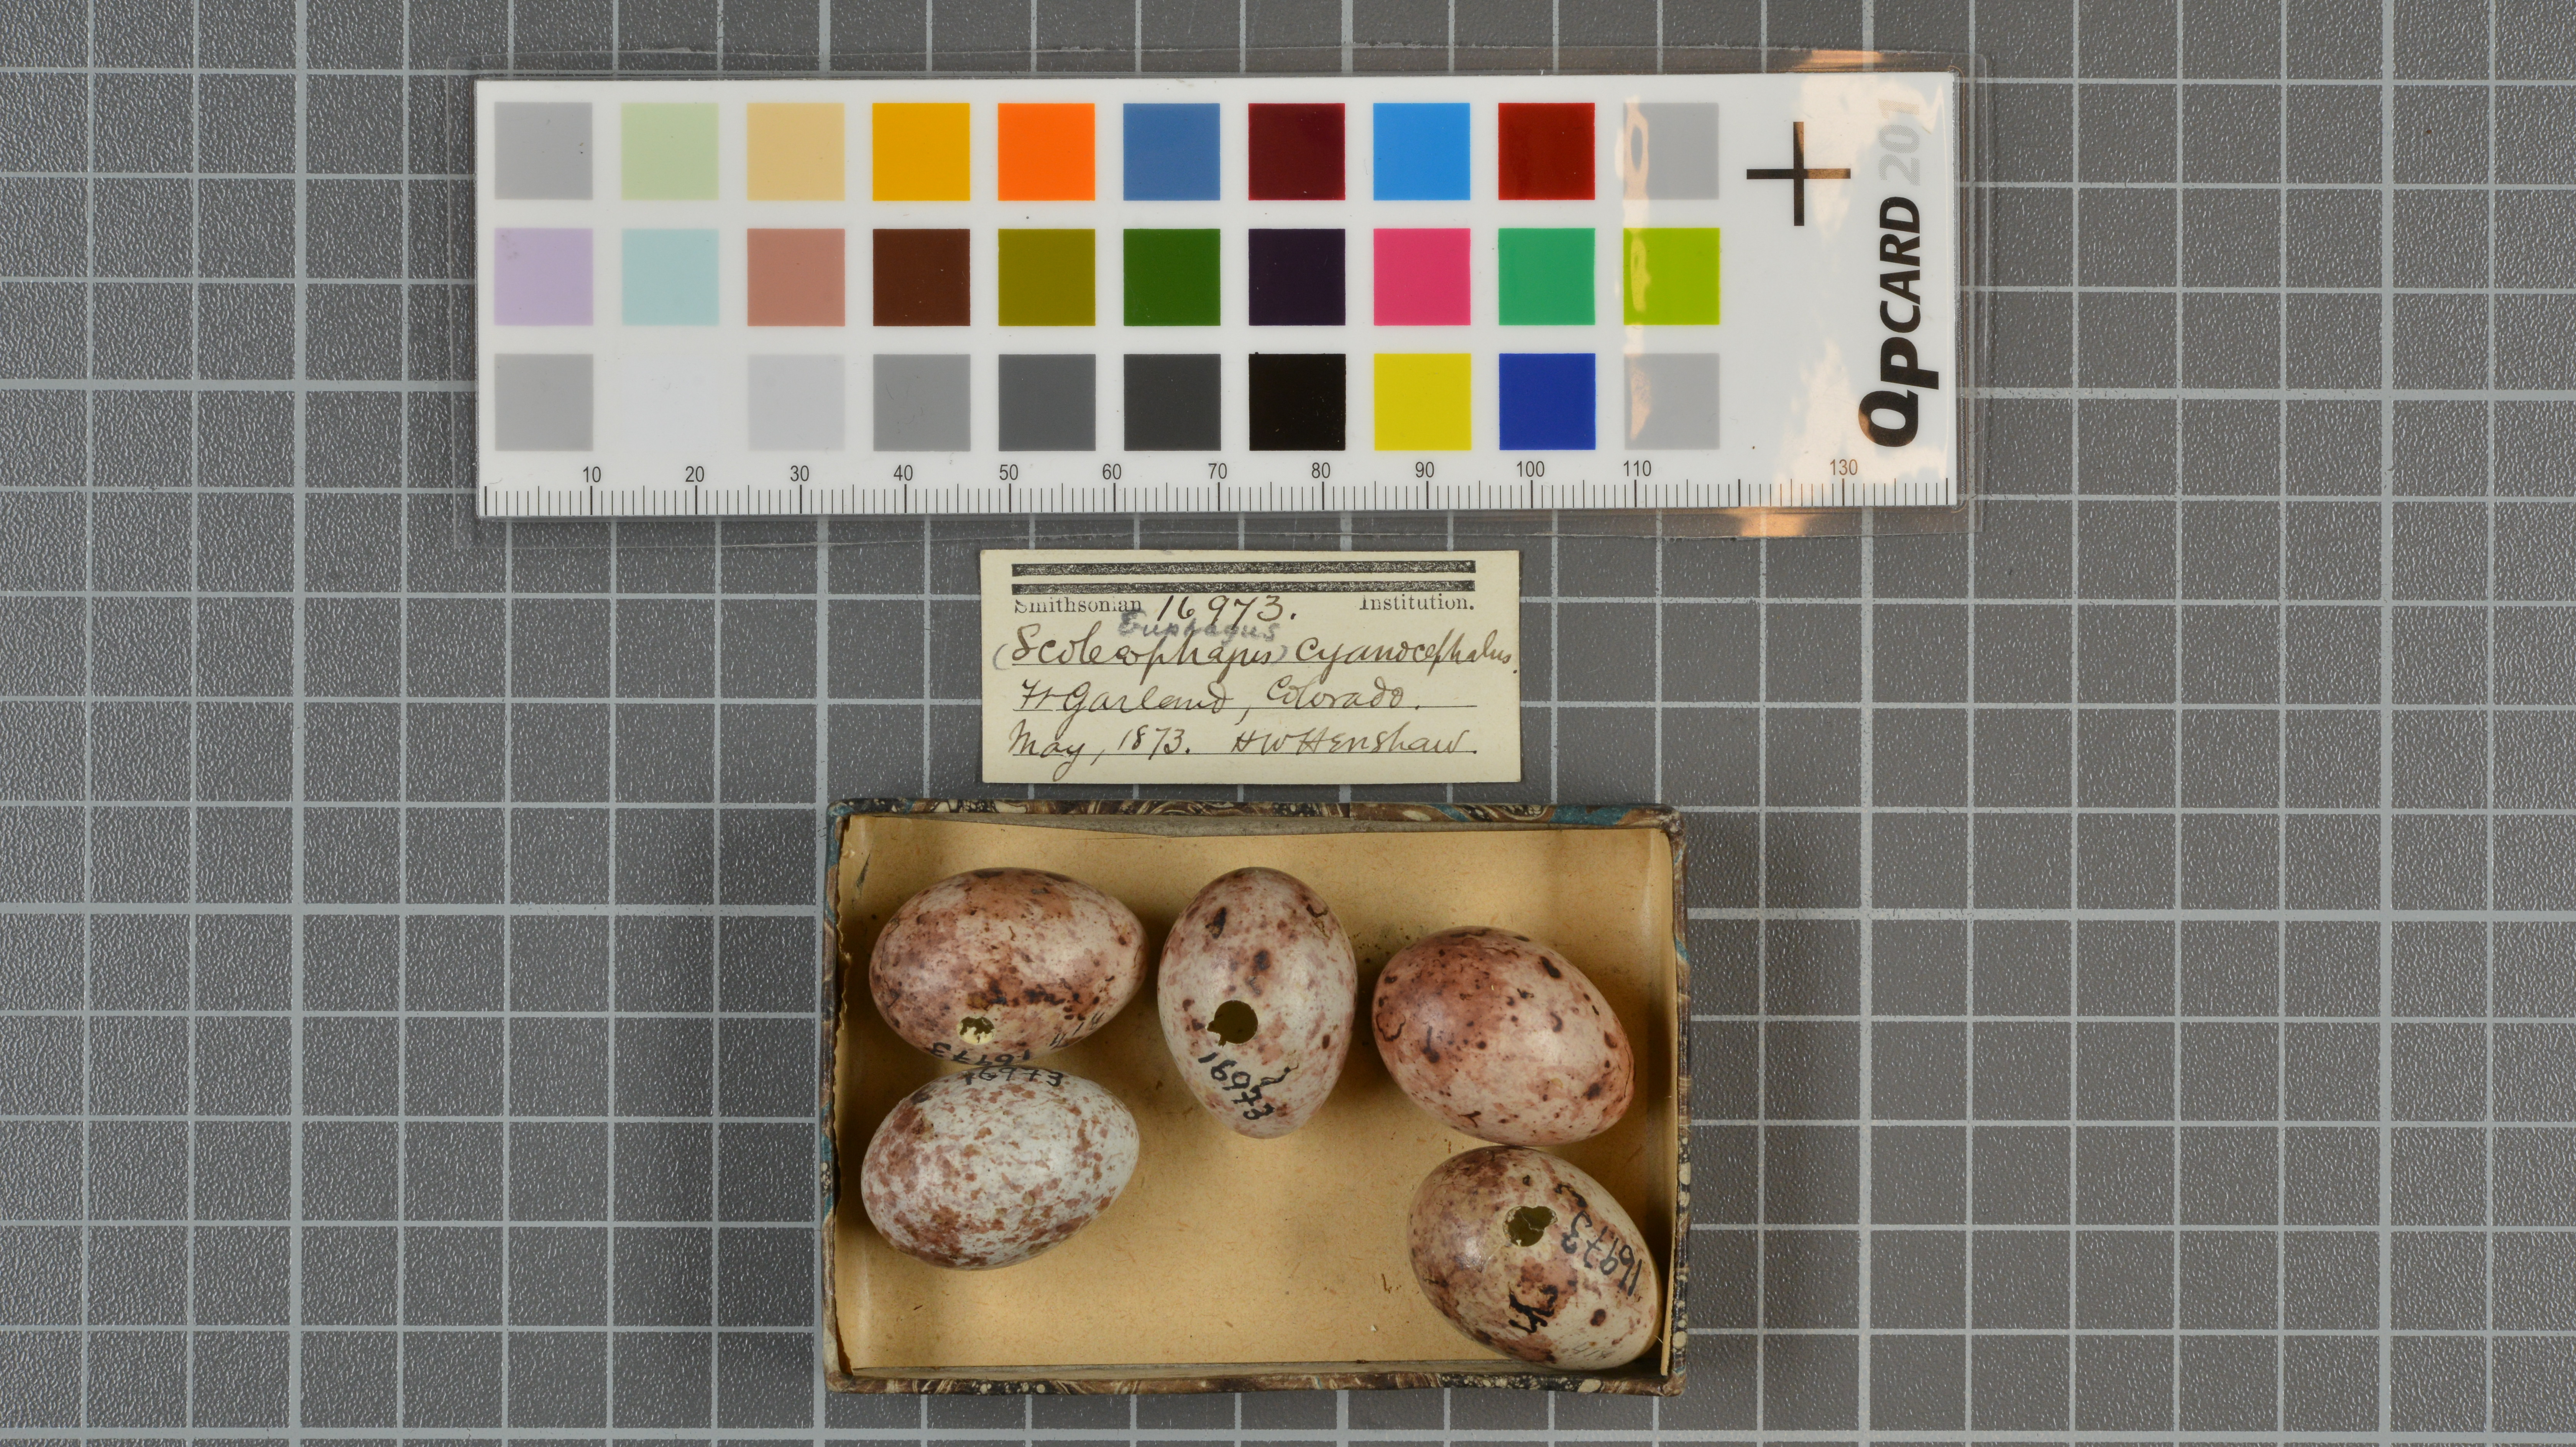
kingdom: Animalia
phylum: Chordata
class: Aves
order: Passeriformes
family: Icteridae
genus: Euphagus
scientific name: Euphagus cyanocephalus
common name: Brewer's blackbird
